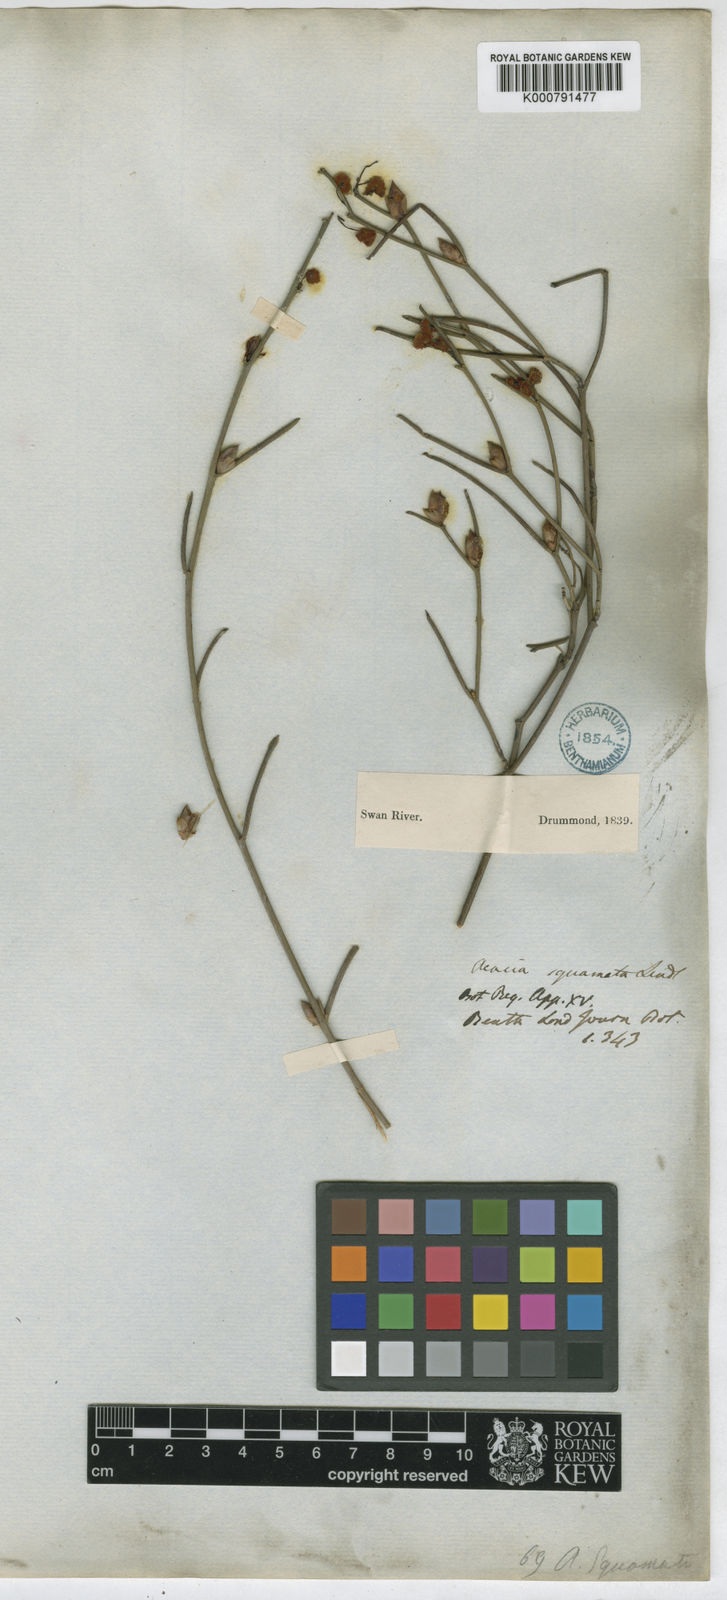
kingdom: Plantae
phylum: Tracheophyta
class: Magnoliopsida
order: Fabales
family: Fabaceae
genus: Acacia
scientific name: Acacia squamata
